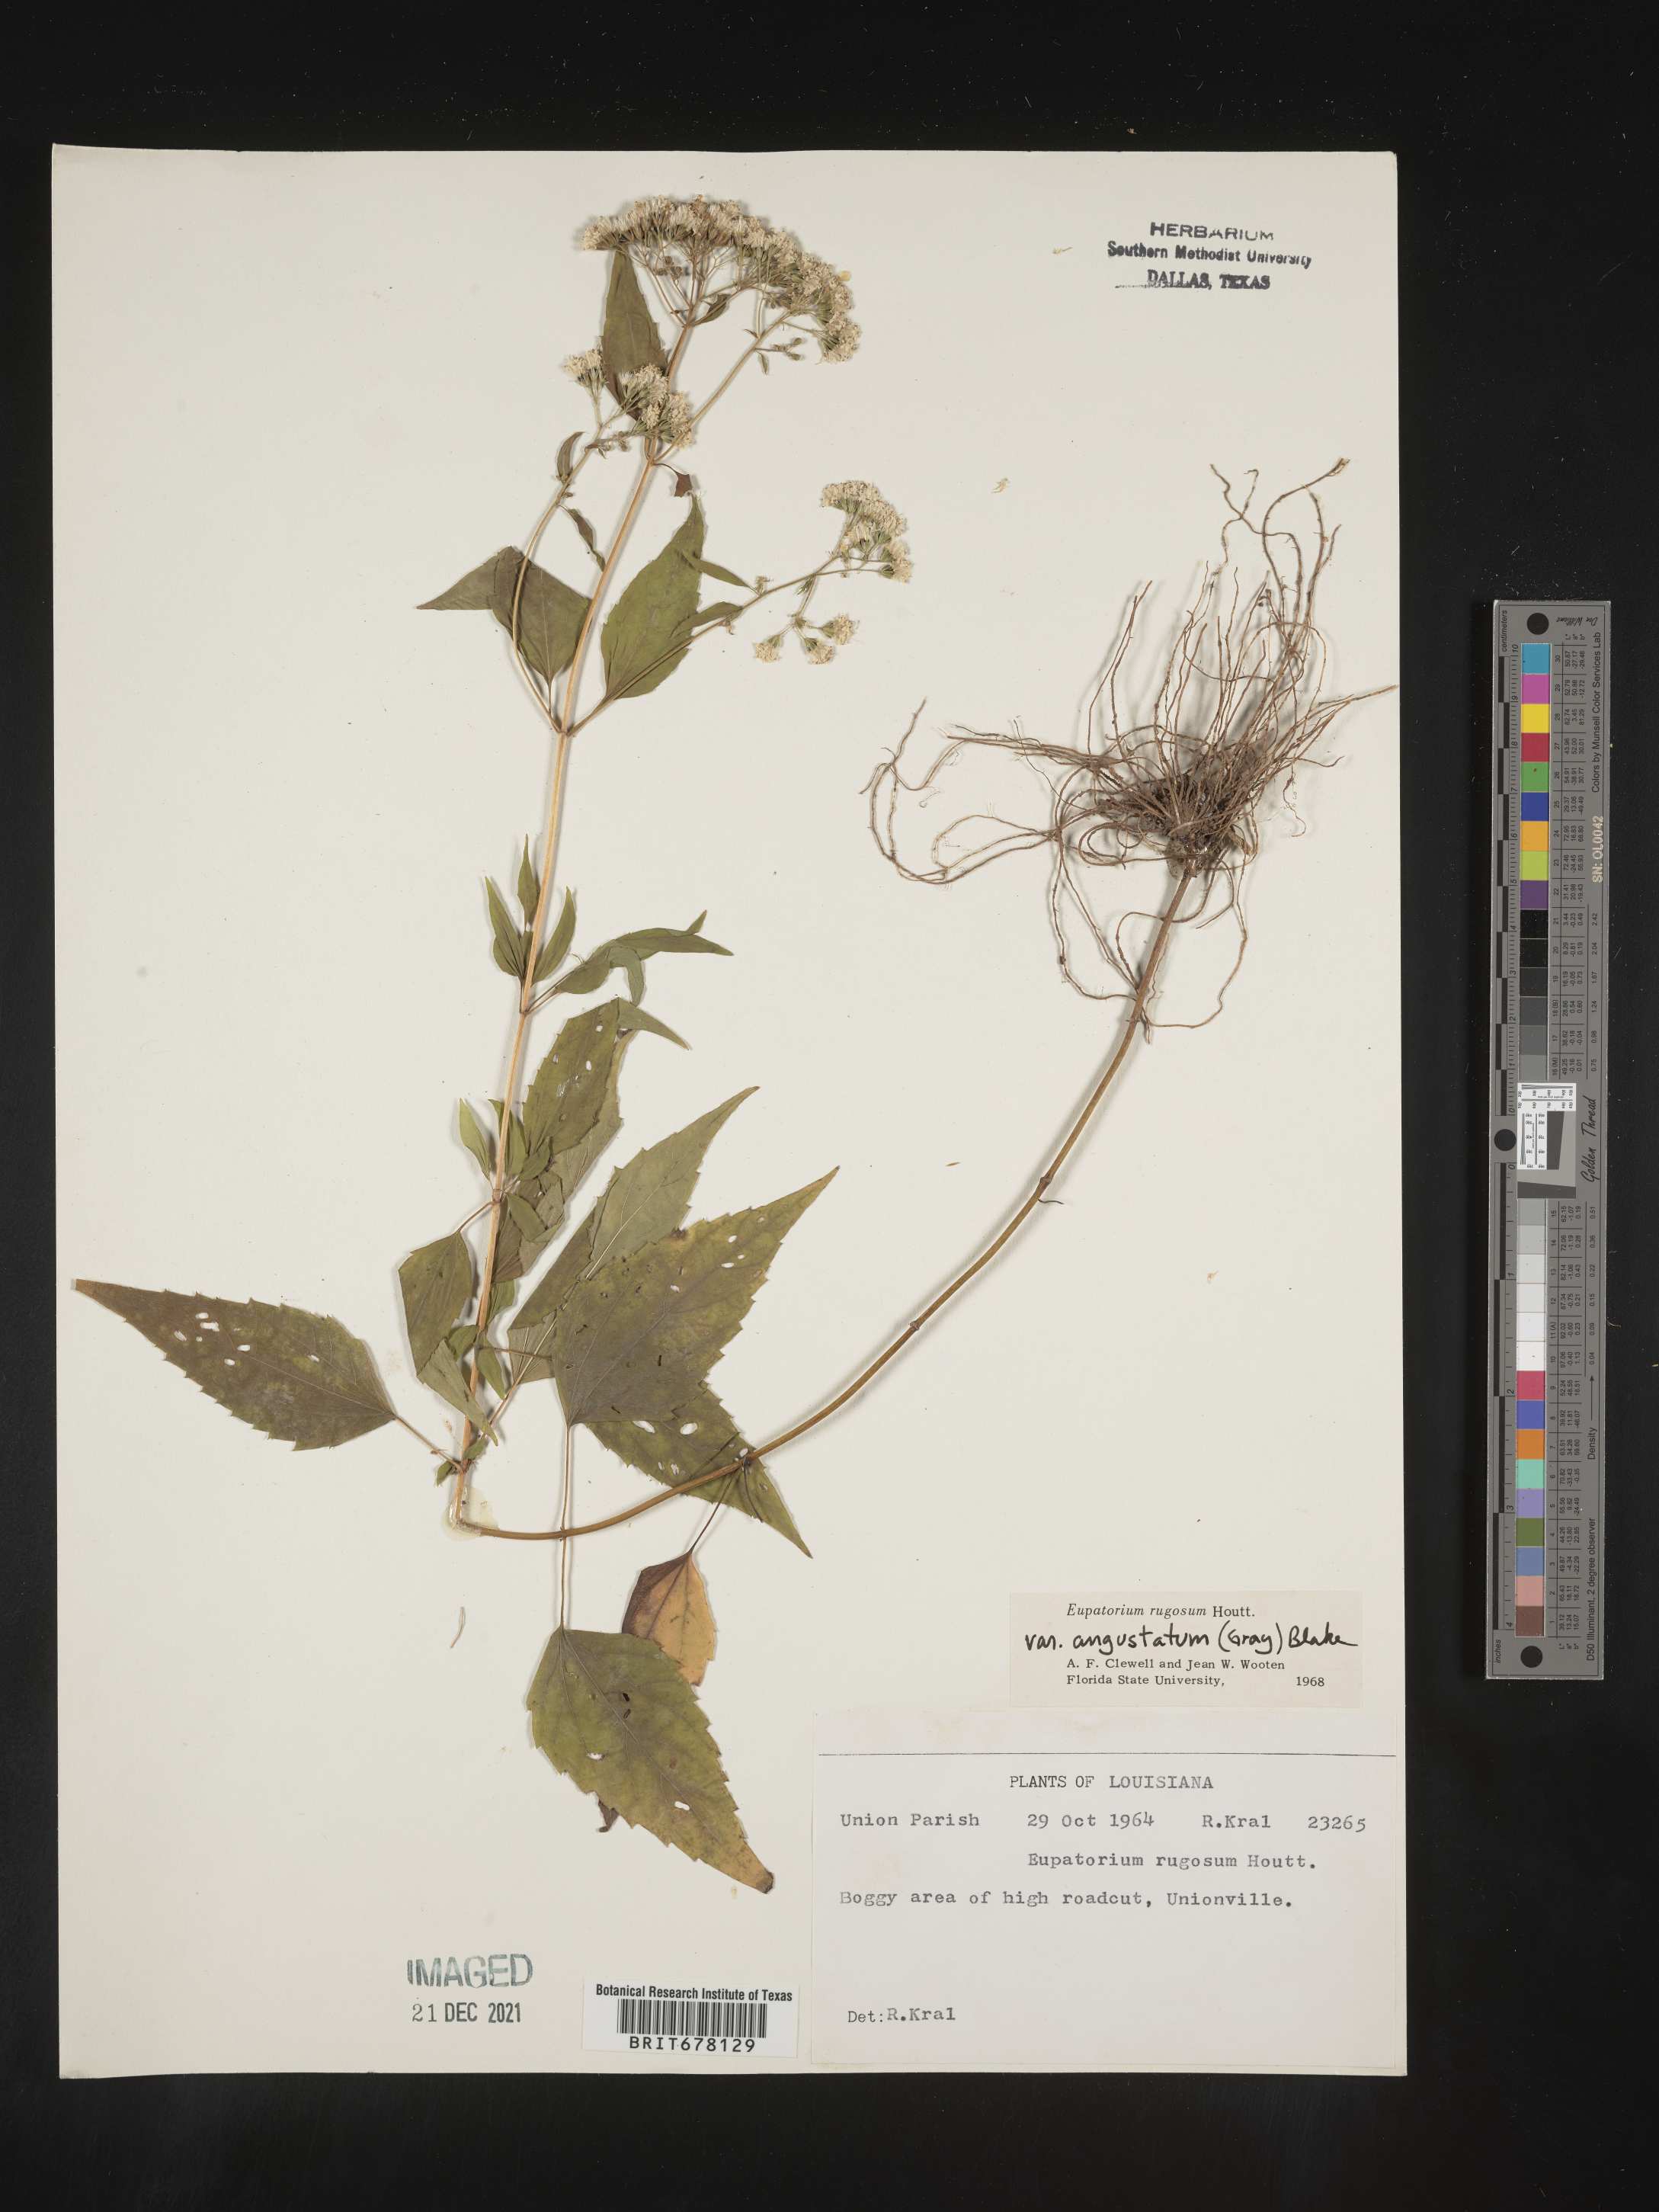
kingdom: Plantae
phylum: Tracheophyta
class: Magnoliopsida
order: Asterales
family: Asteraceae
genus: Eupatorium
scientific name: Eupatorium
